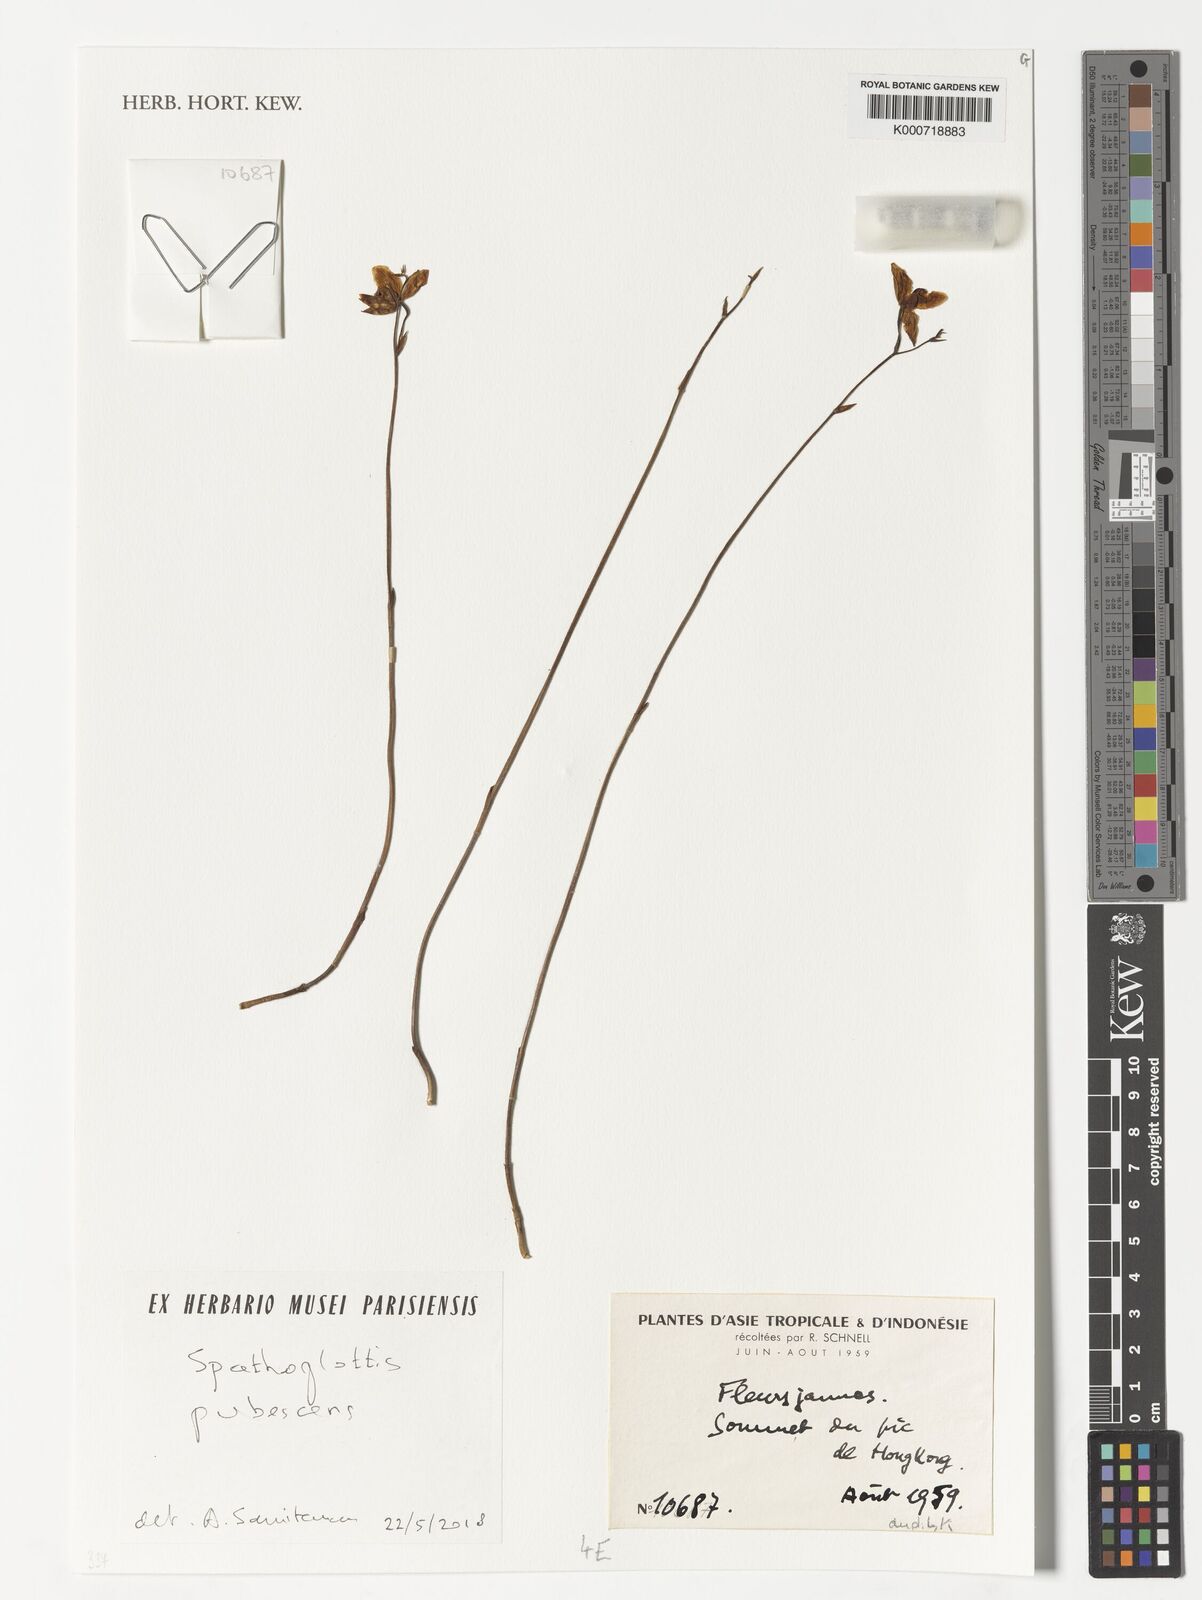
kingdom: Plantae
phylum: Tracheophyta
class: Liliopsida
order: Asparagales
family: Orchidaceae
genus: Spathoglottis
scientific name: Spathoglottis pubescens
